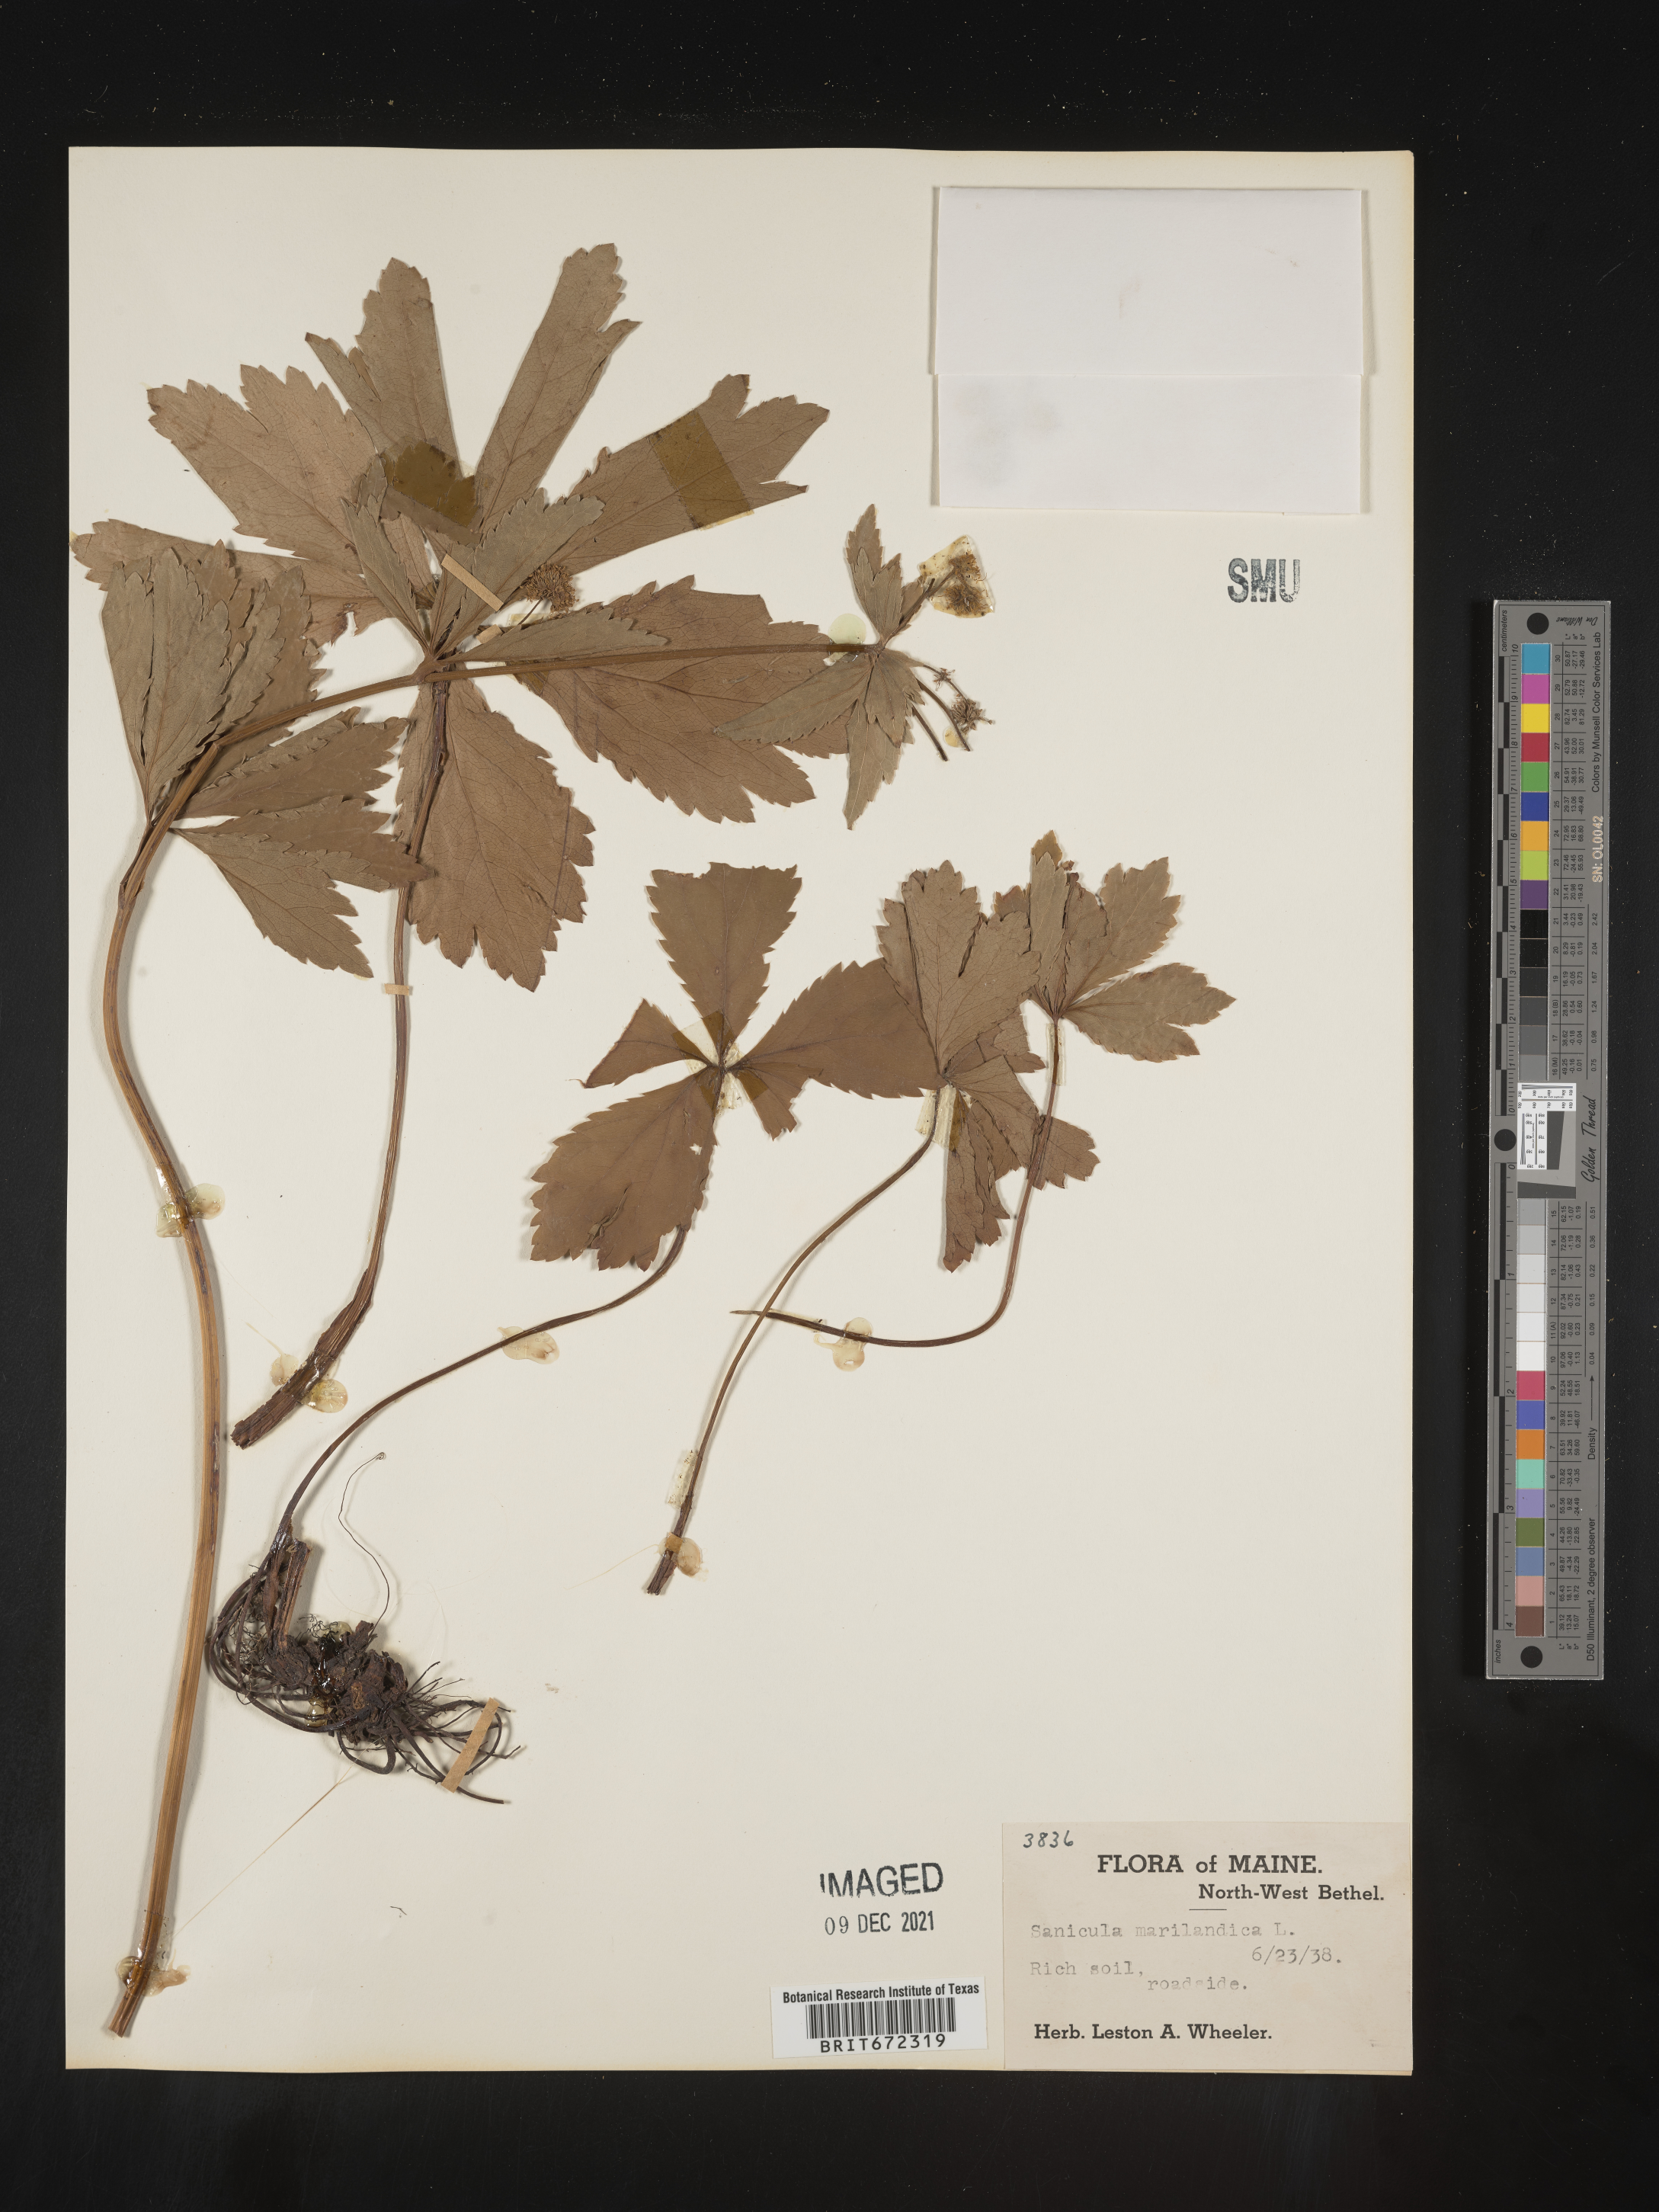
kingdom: Plantae
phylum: Tracheophyta
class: Magnoliopsida
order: Apiales
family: Apiaceae
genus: Sanicula
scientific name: Sanicula marilandica
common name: Black snakeroot
